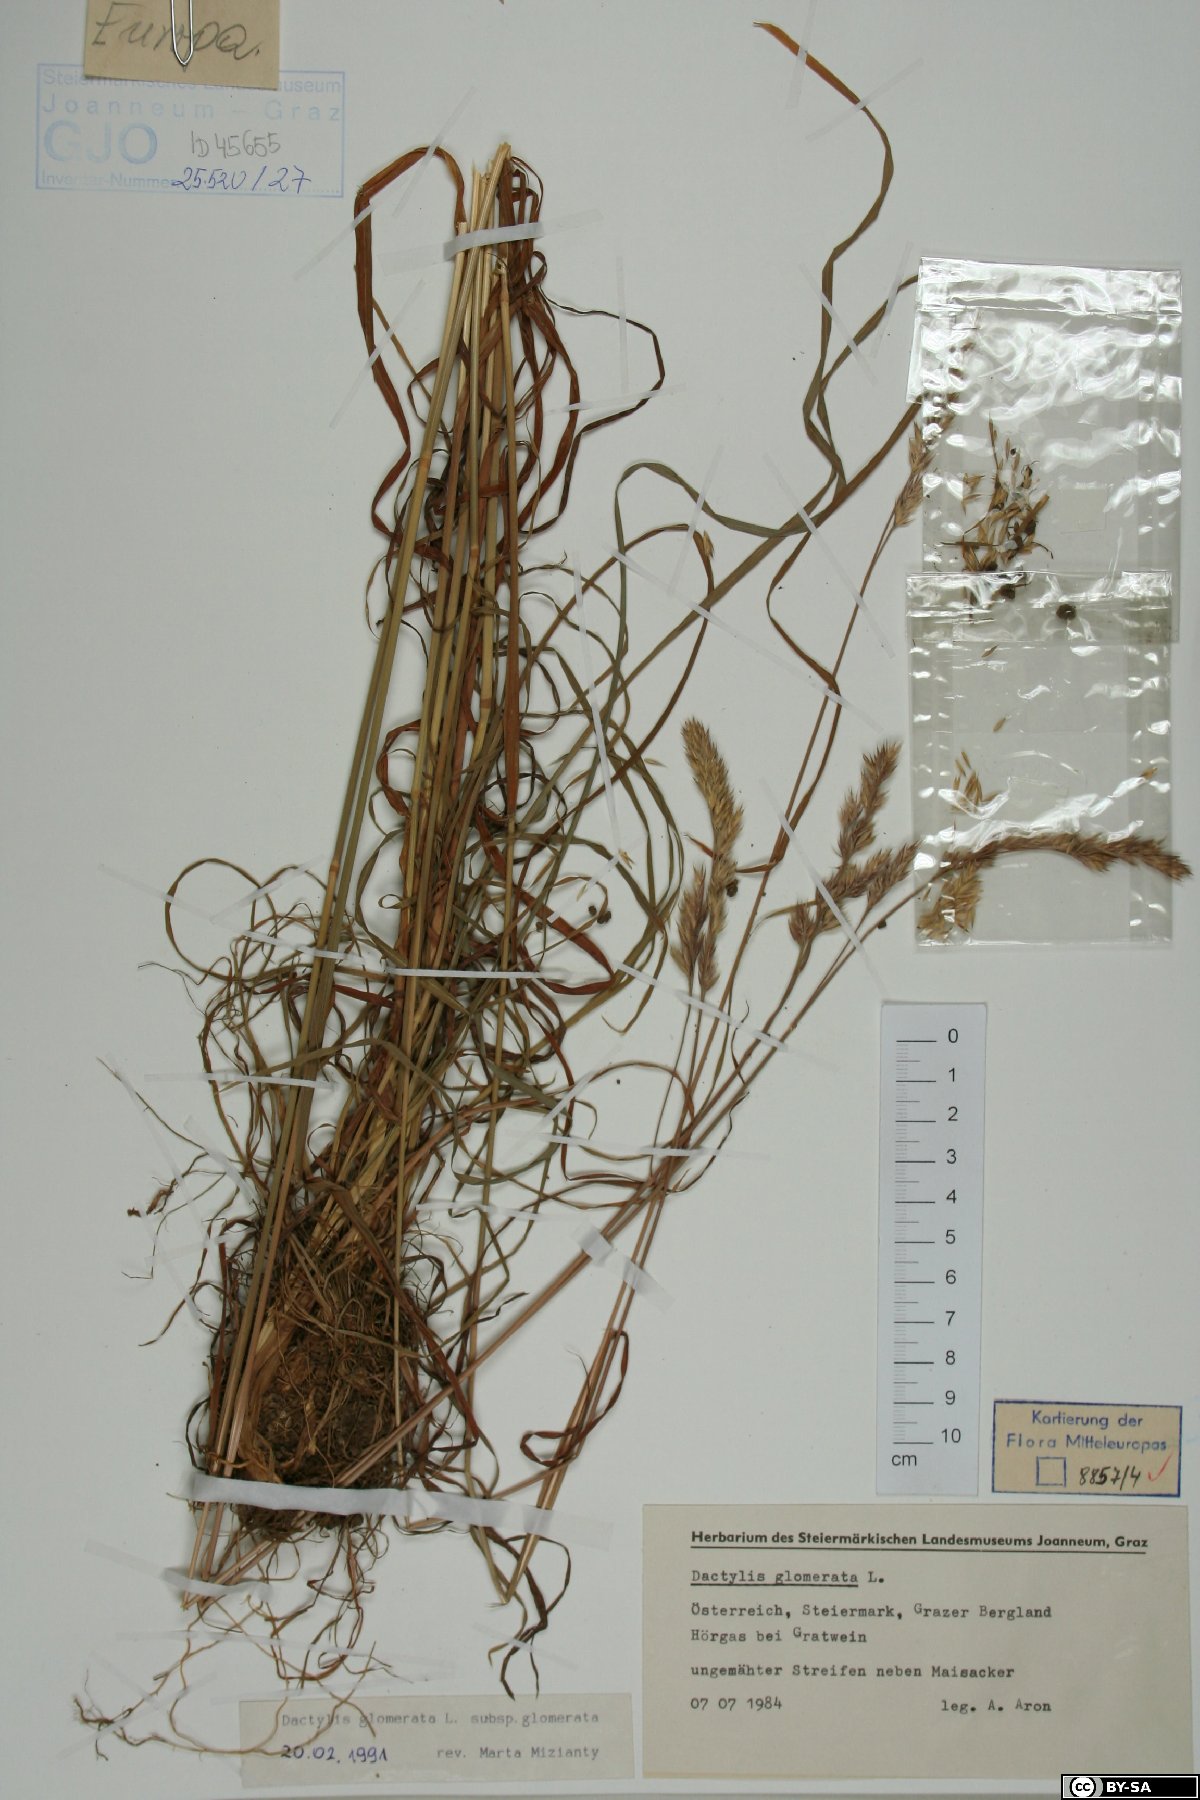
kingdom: Plantae
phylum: Tracheophyta
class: Liliopsida
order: Poales
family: Poaceae
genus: Dactylis
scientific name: Dactylis glomerata
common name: Orchardgrass
